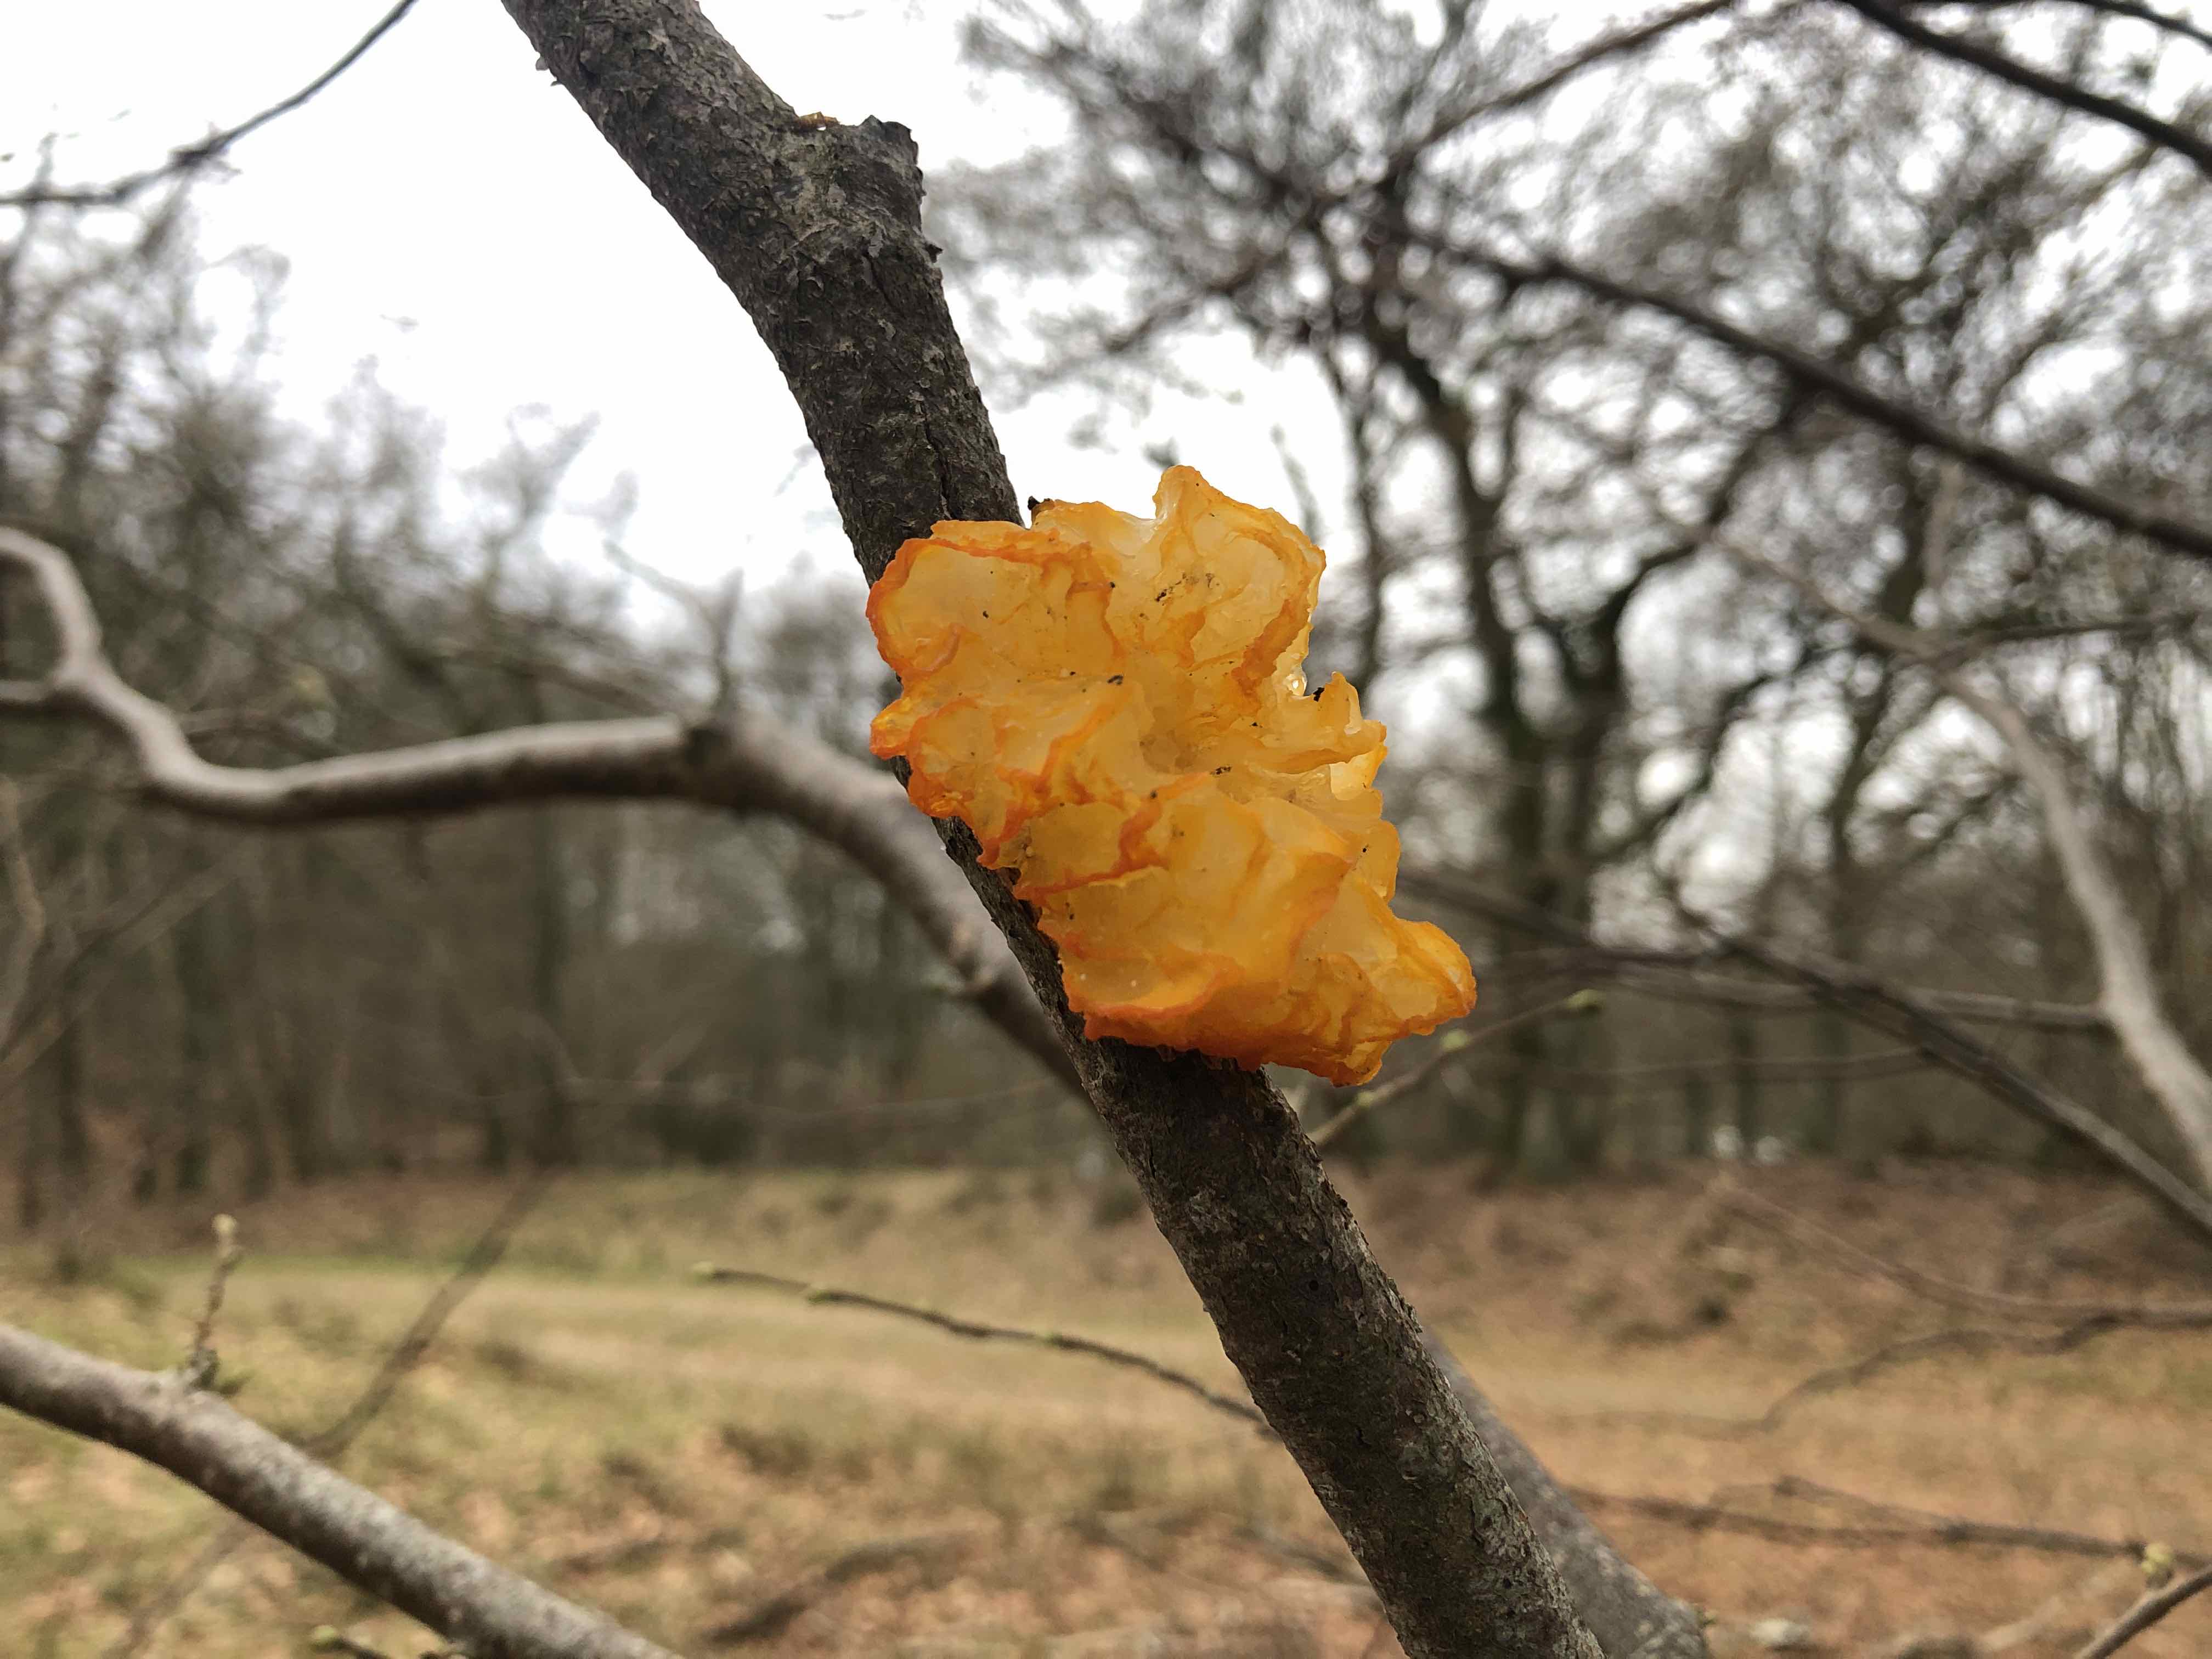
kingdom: Fungi
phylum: Basidiomycota
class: Tremellomycetes
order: Tremellales
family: Tremellaceae
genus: Tremella
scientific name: Tremella mesenterica
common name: gul bævresvamp
